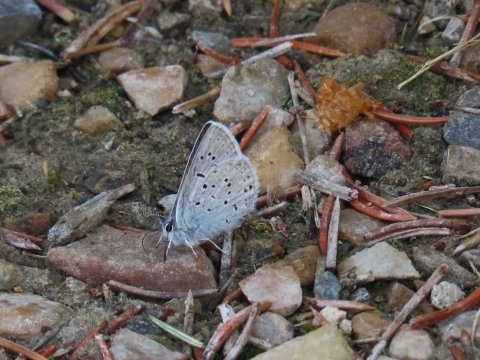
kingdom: Animalia
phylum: Arthropoda
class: Insecta
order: Lepidoptera
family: Lycaenidae
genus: Plebejus
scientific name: Plebejus saepiolus
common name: Greenish Blue
